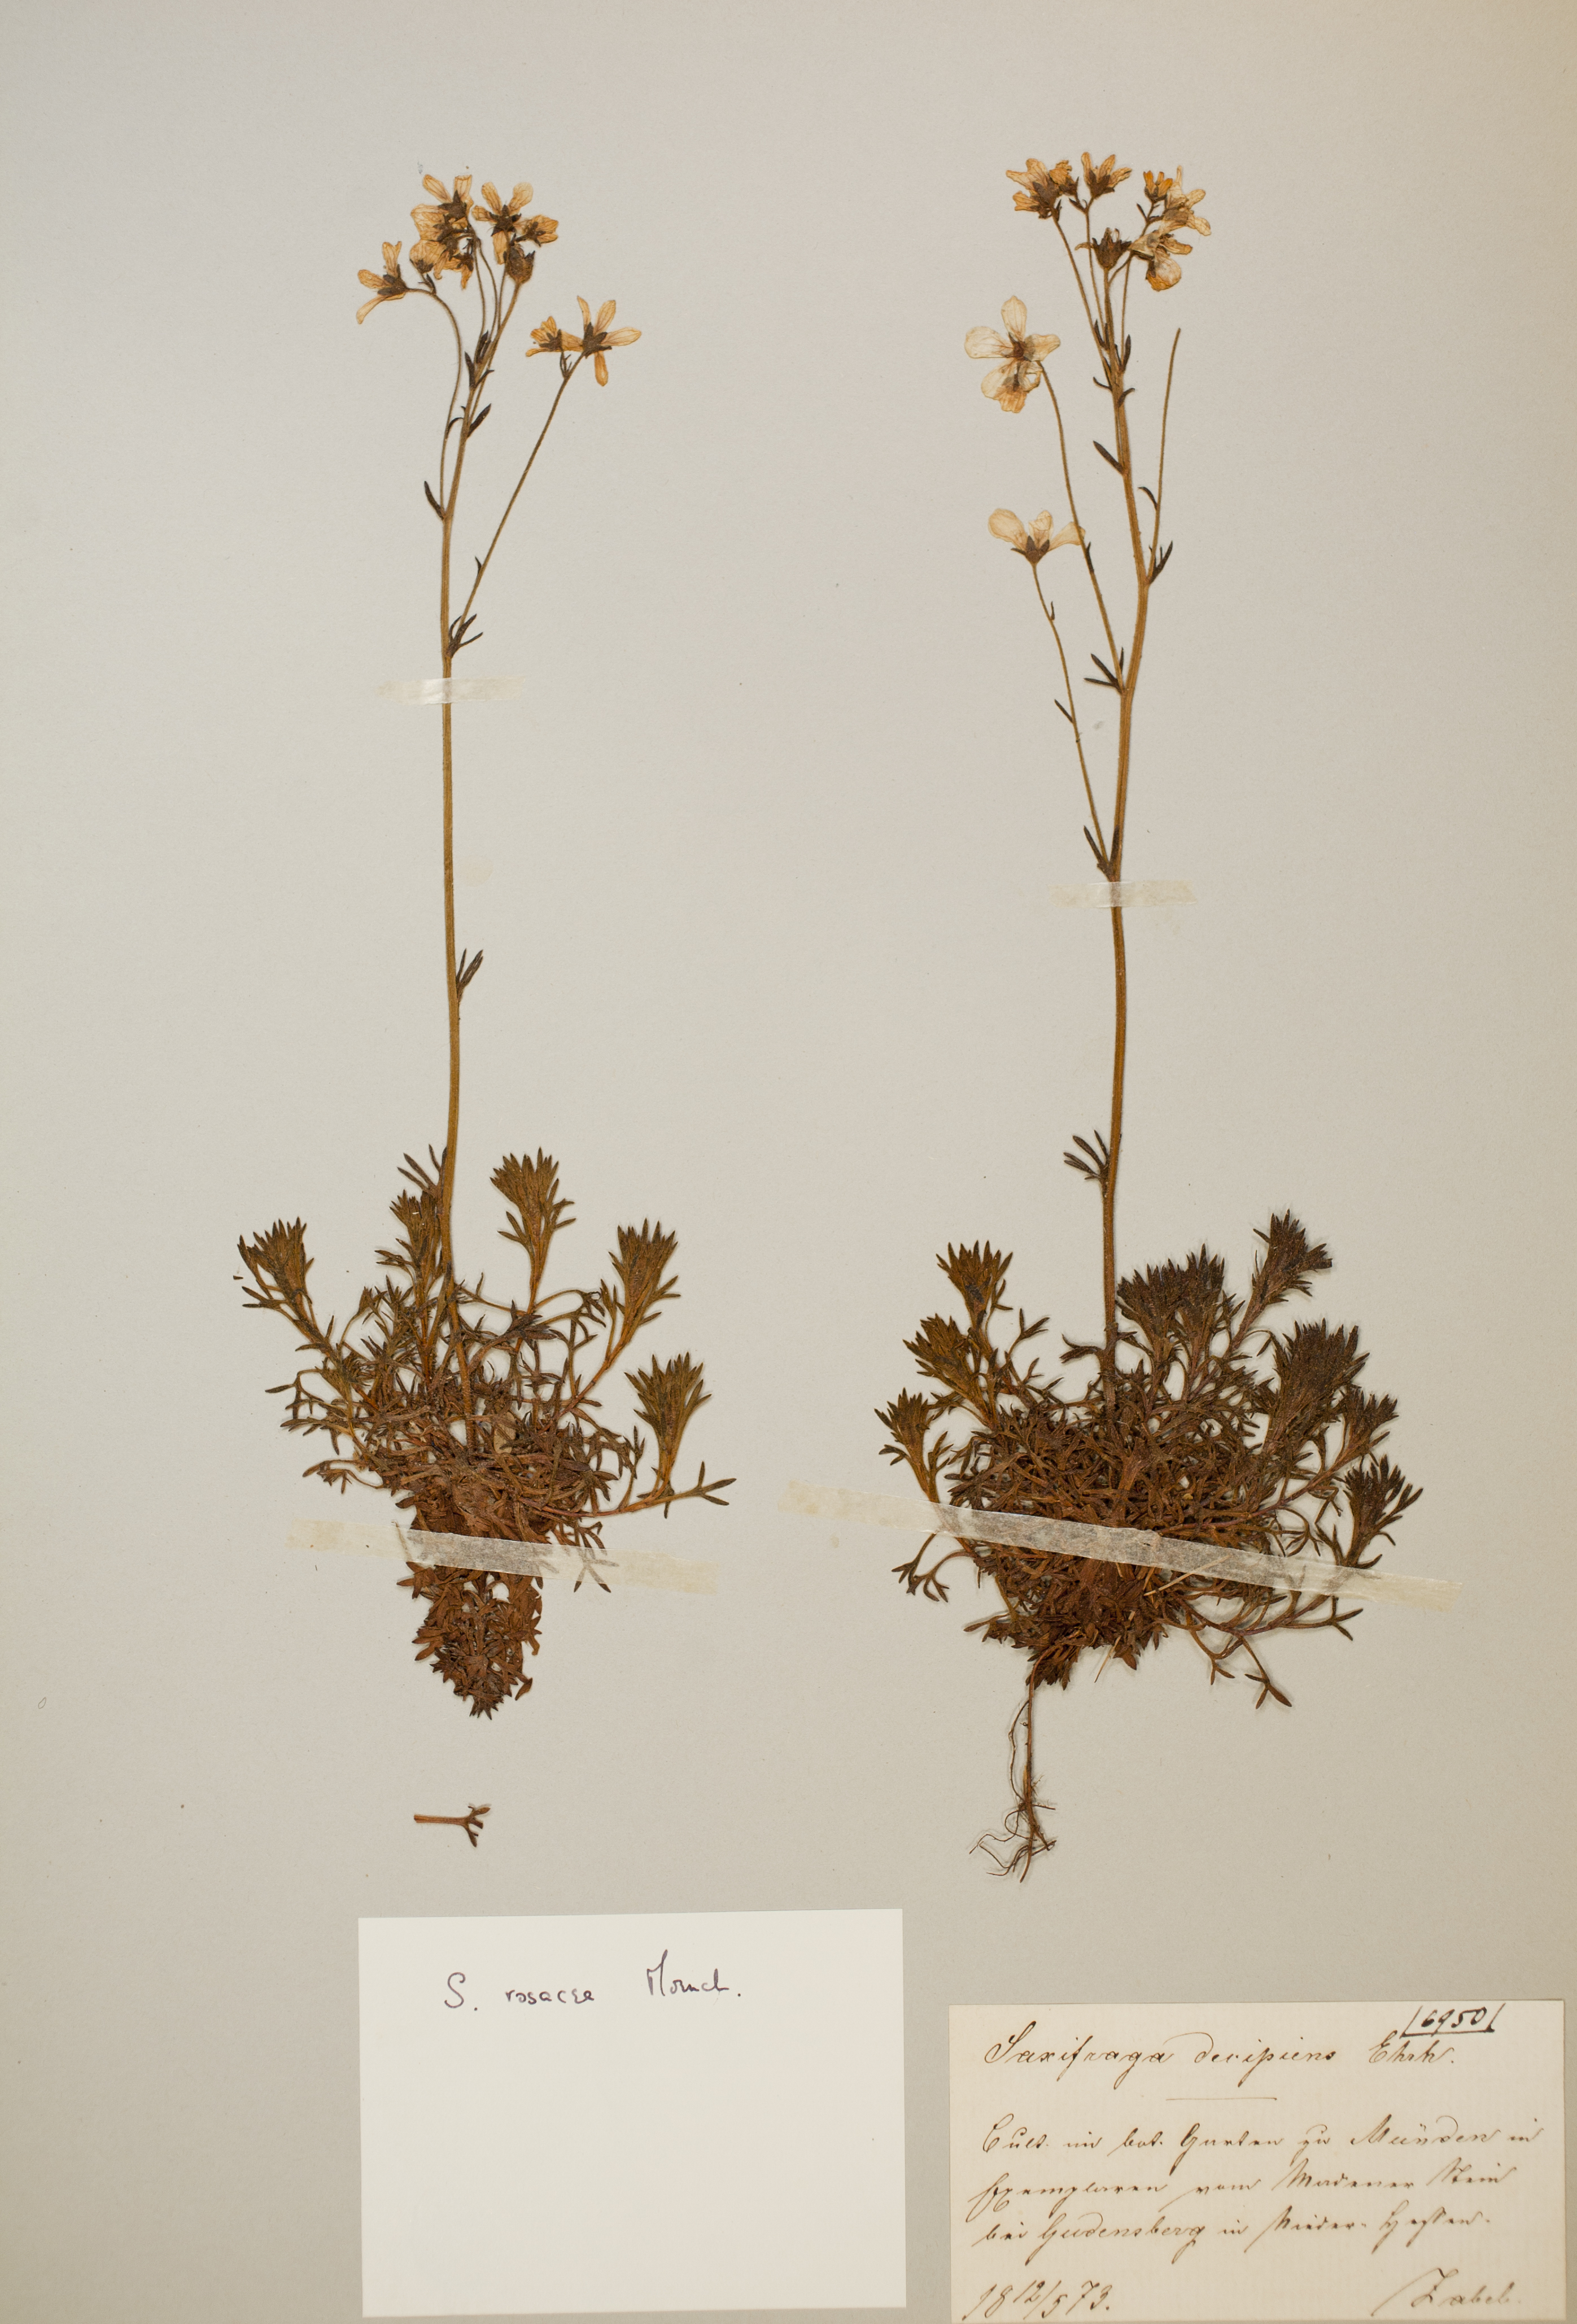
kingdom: Plantae
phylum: Tracheophyta
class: Magnoliopsida
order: Saxifragales
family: Saxifragaceae
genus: Saxifraga
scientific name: Saxifraga rosacea
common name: Irish saxifrage
